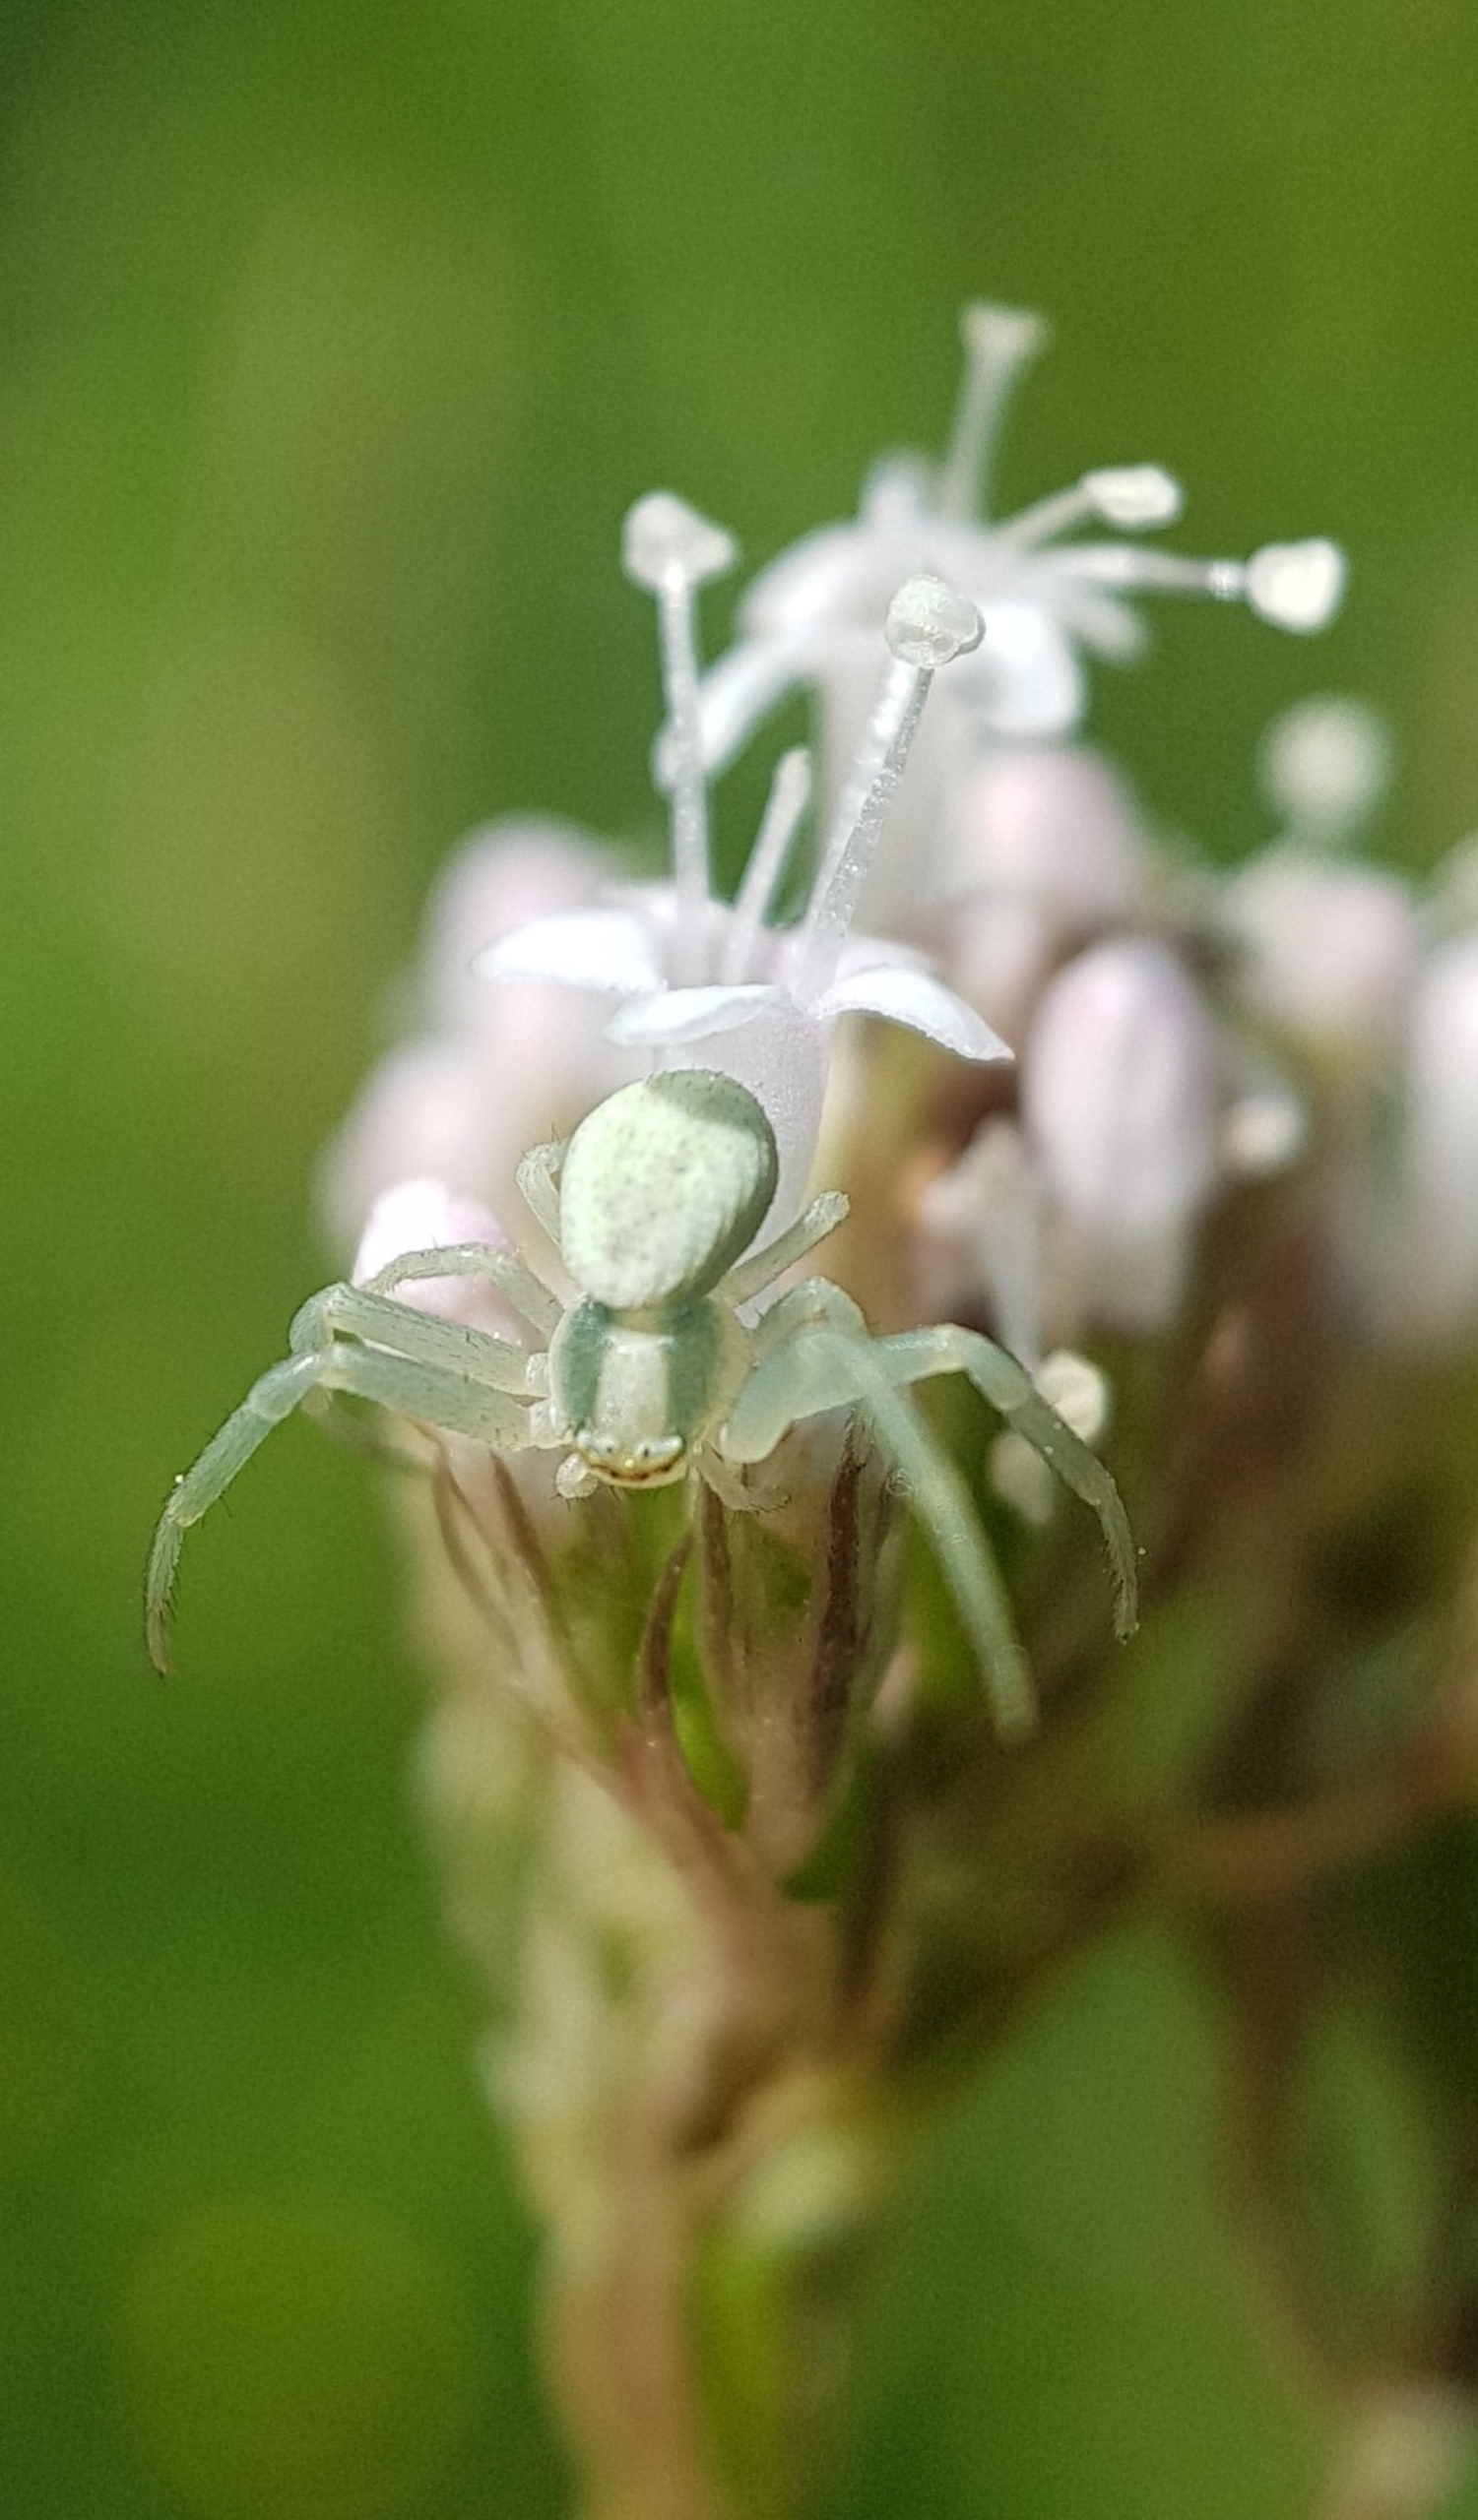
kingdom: Animalia
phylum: Arthropoda
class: Arachnida
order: Araneae
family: Thomisidae
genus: Misumena
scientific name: Misumena vatia
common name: Kamæleonedderkop
